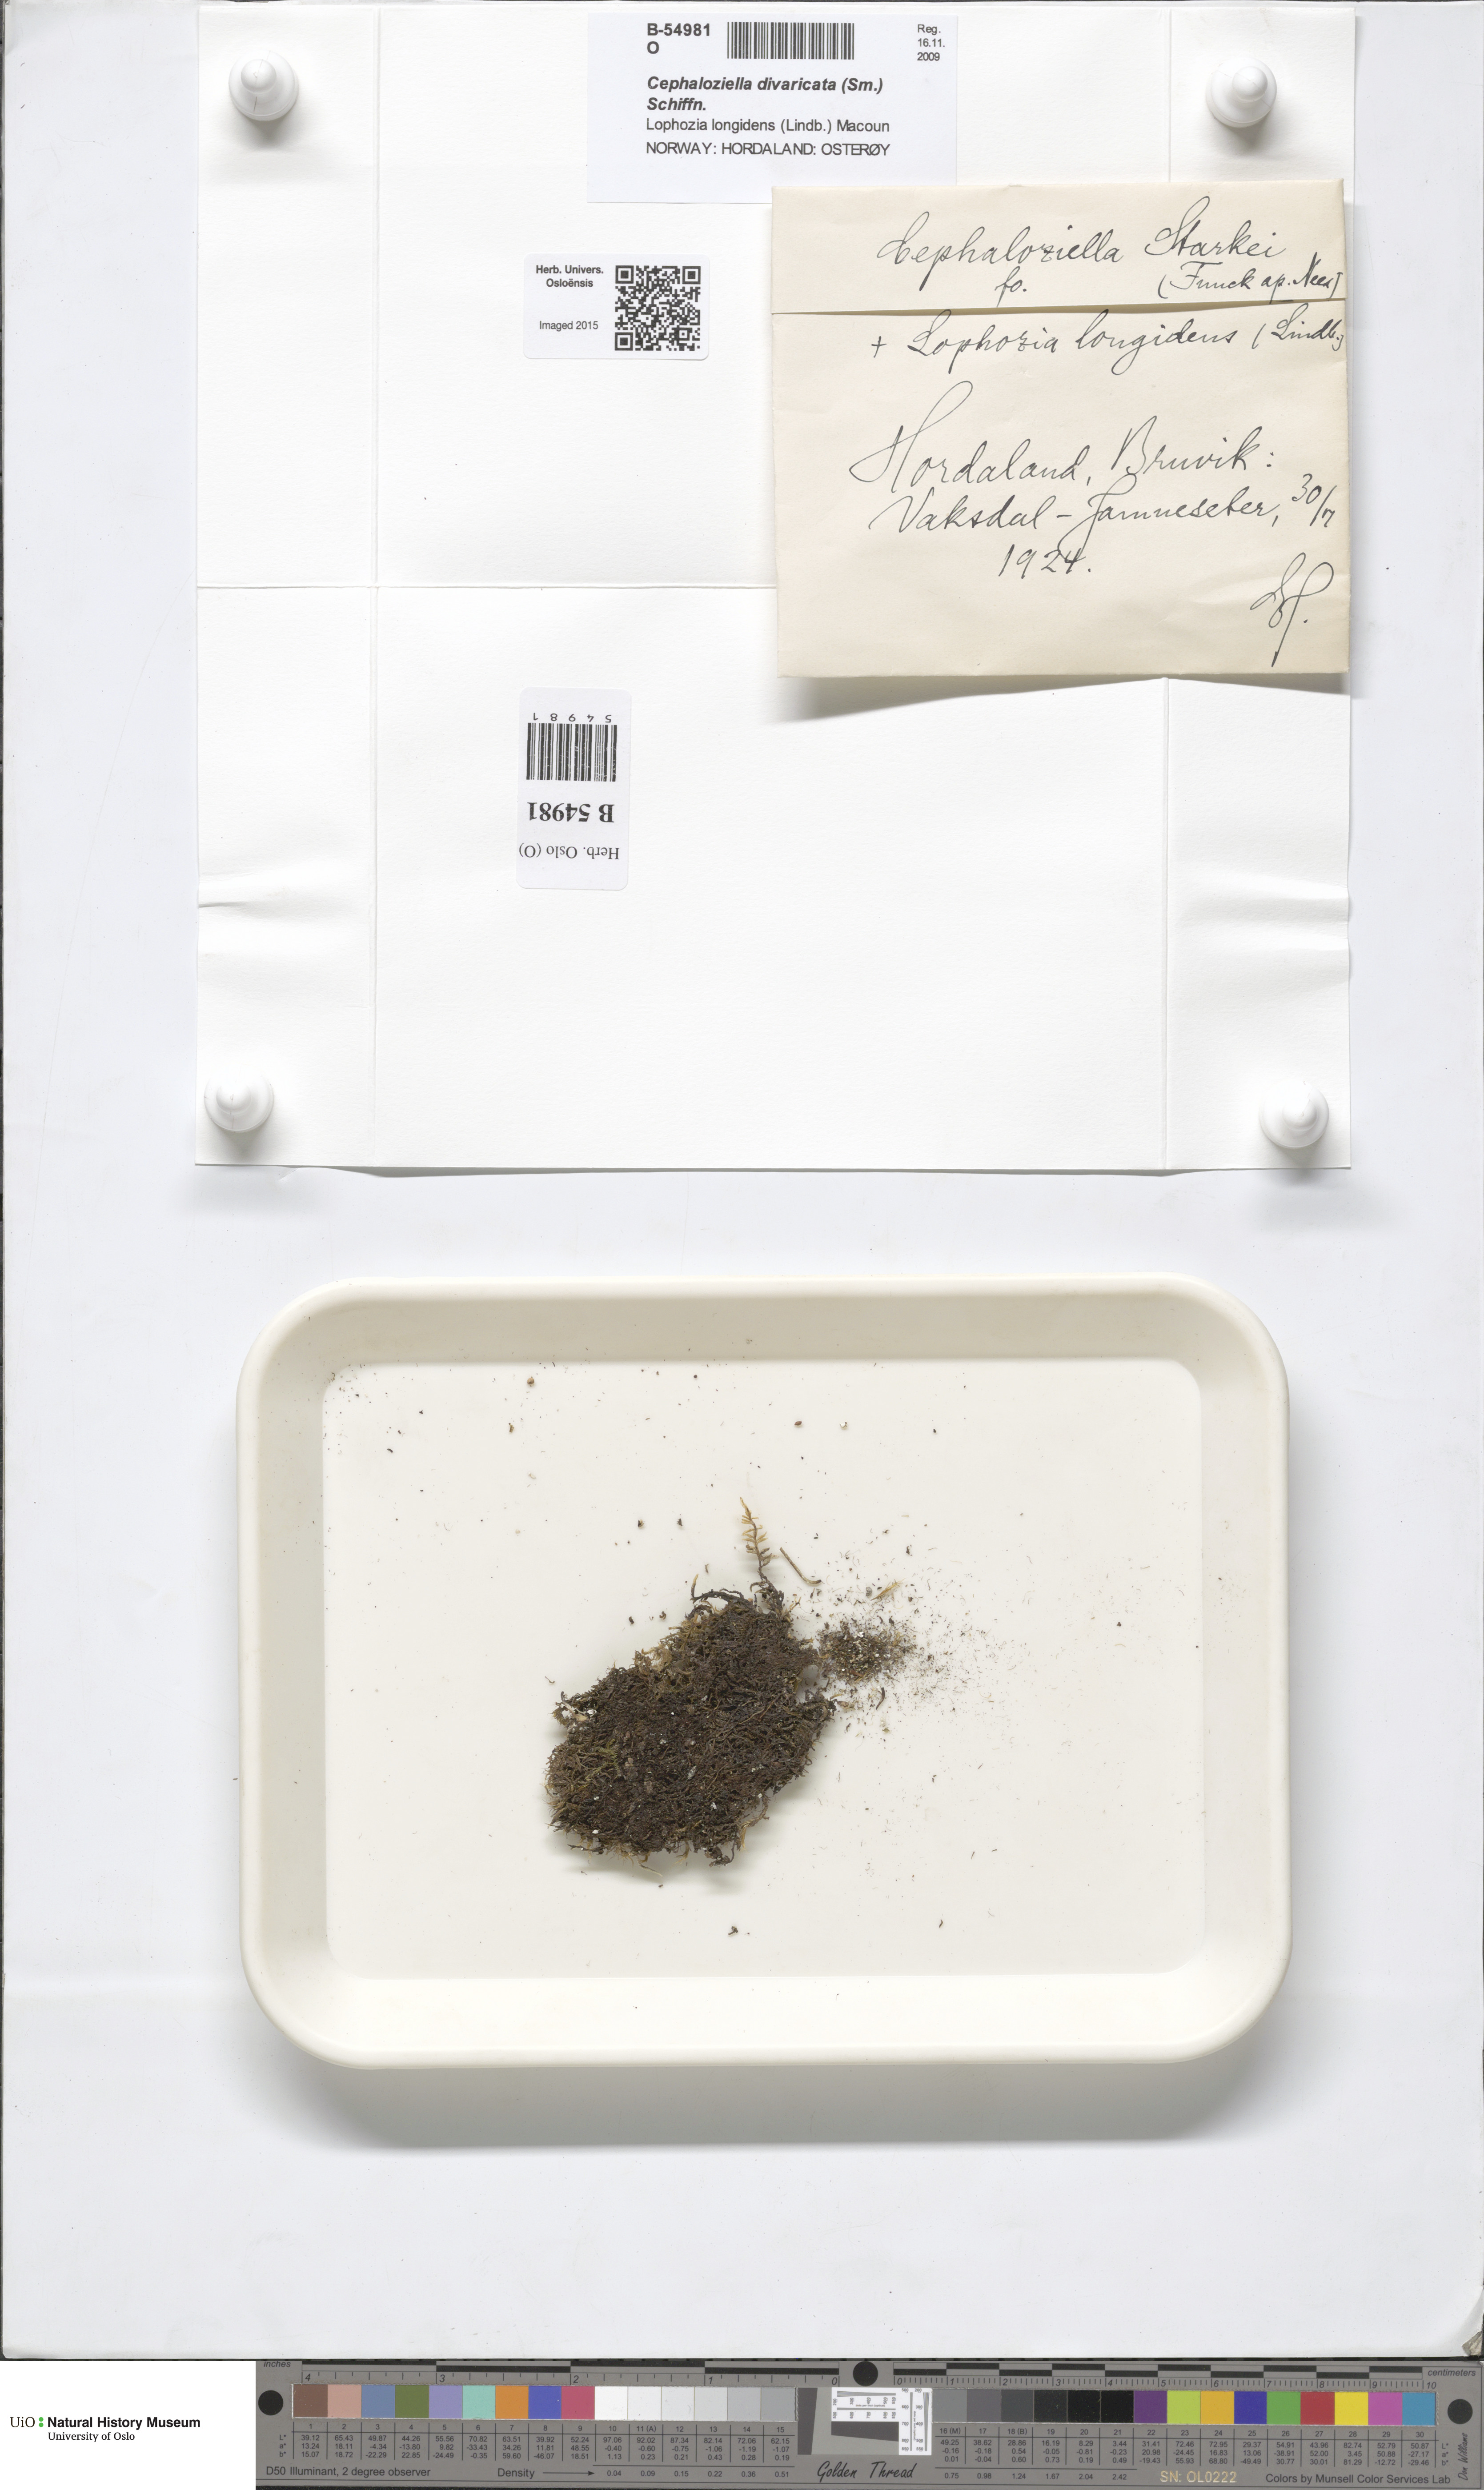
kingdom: Plantae
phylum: Marchantiophyta
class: Jungermanniopsida
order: Jungermanniales
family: Cephaloziellaceae
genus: Cephaloziella
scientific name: Cephaloziella divaricata
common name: Spreading threadwort
